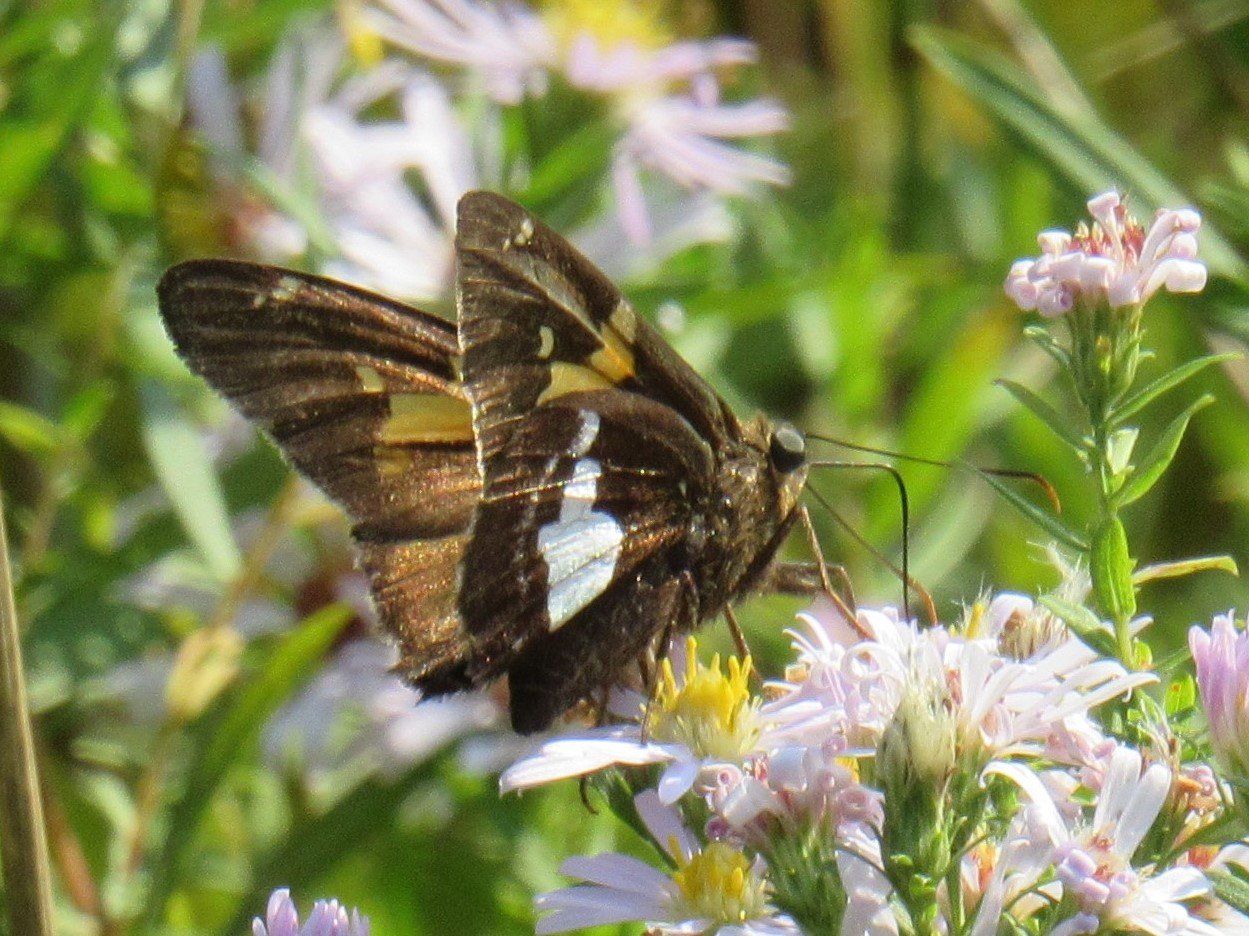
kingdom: Animalia
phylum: Arthropoda
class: Insecta
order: Lepidoptera
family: Hesperiidae
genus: Epargyreus
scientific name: Epargyreus clarus
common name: Silver-spotted Skipper
